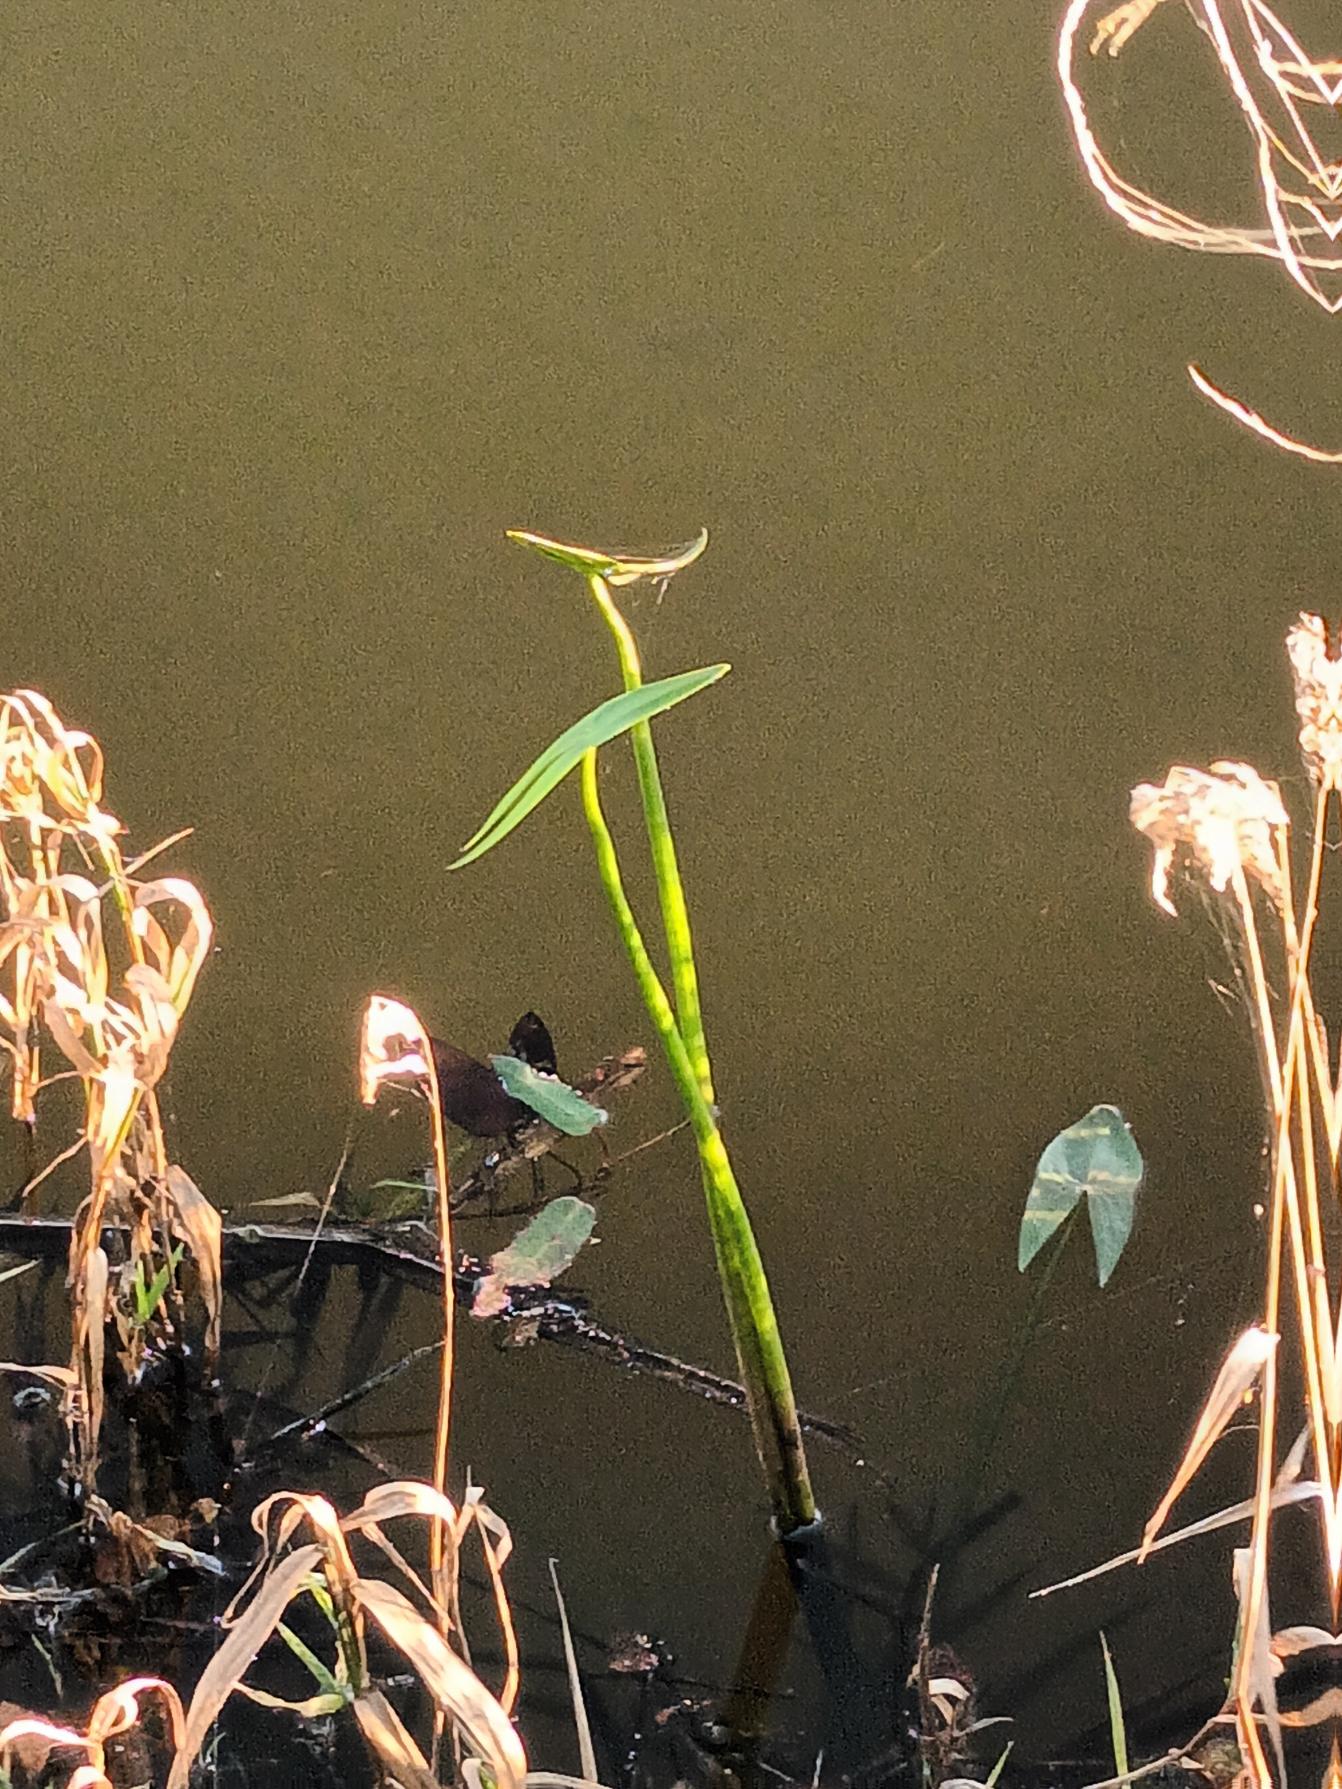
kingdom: Plantae
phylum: Tracheophyta
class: Liliopsida
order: Alismatales
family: Alismataceae
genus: Sagittaria
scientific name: Sagittaria sagittifolia
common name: Pilblad
